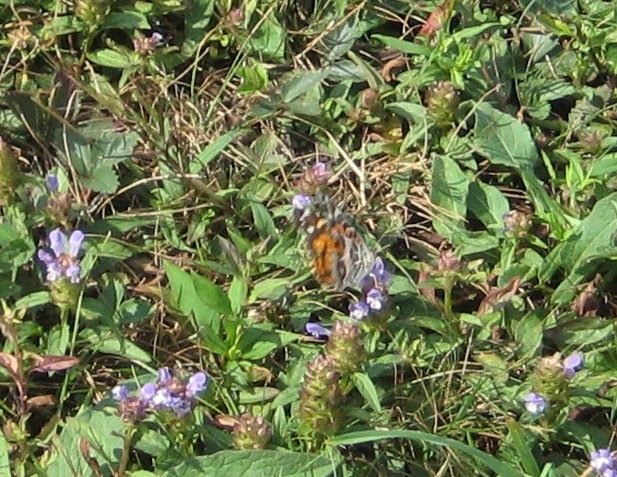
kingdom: Animalia
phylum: Arthropoda
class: Insecta
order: Lepidoptera
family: Nymphalidae
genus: Vanessa
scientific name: Vanessa virginiensis
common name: American Lady
